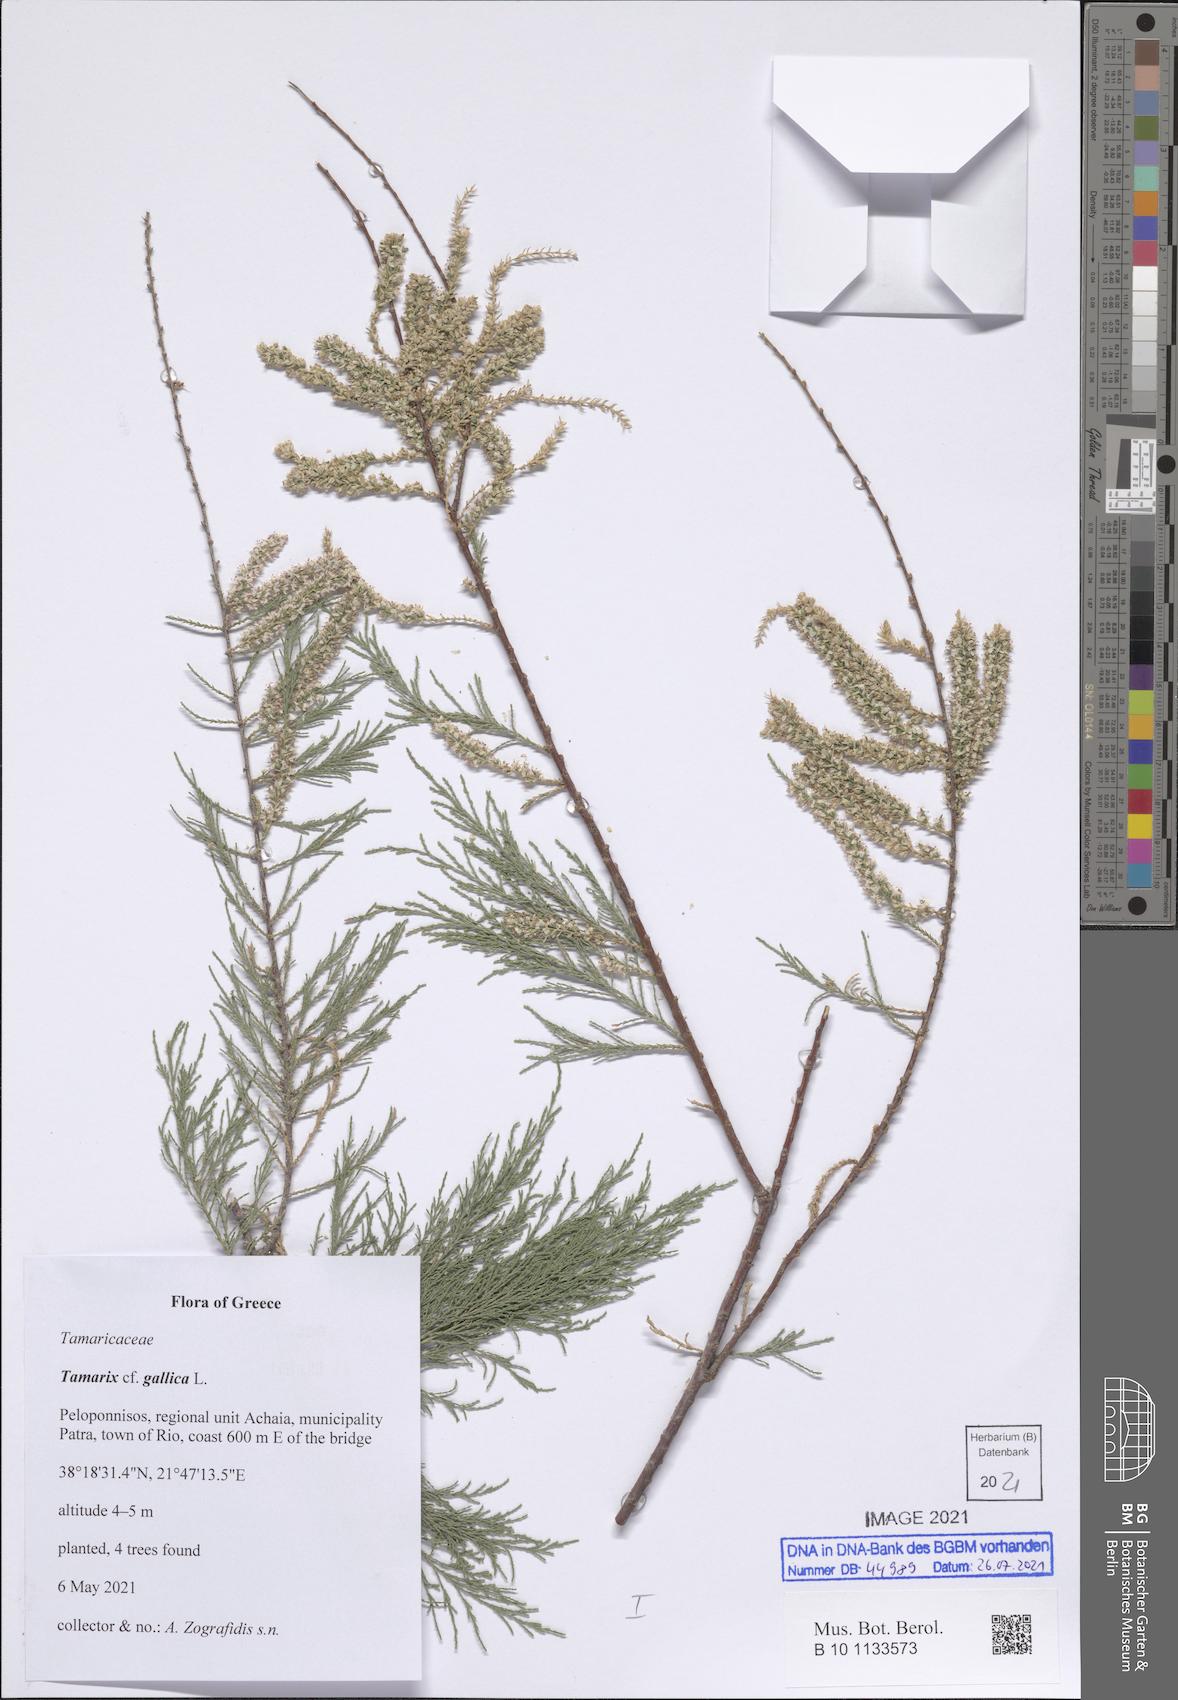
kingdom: Plantae
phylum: Tracheophyta
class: Magnoliopsida
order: Caryophyllales
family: Tamaricaceae
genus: Tamarix
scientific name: Tamarix gallica
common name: Tamarisk
